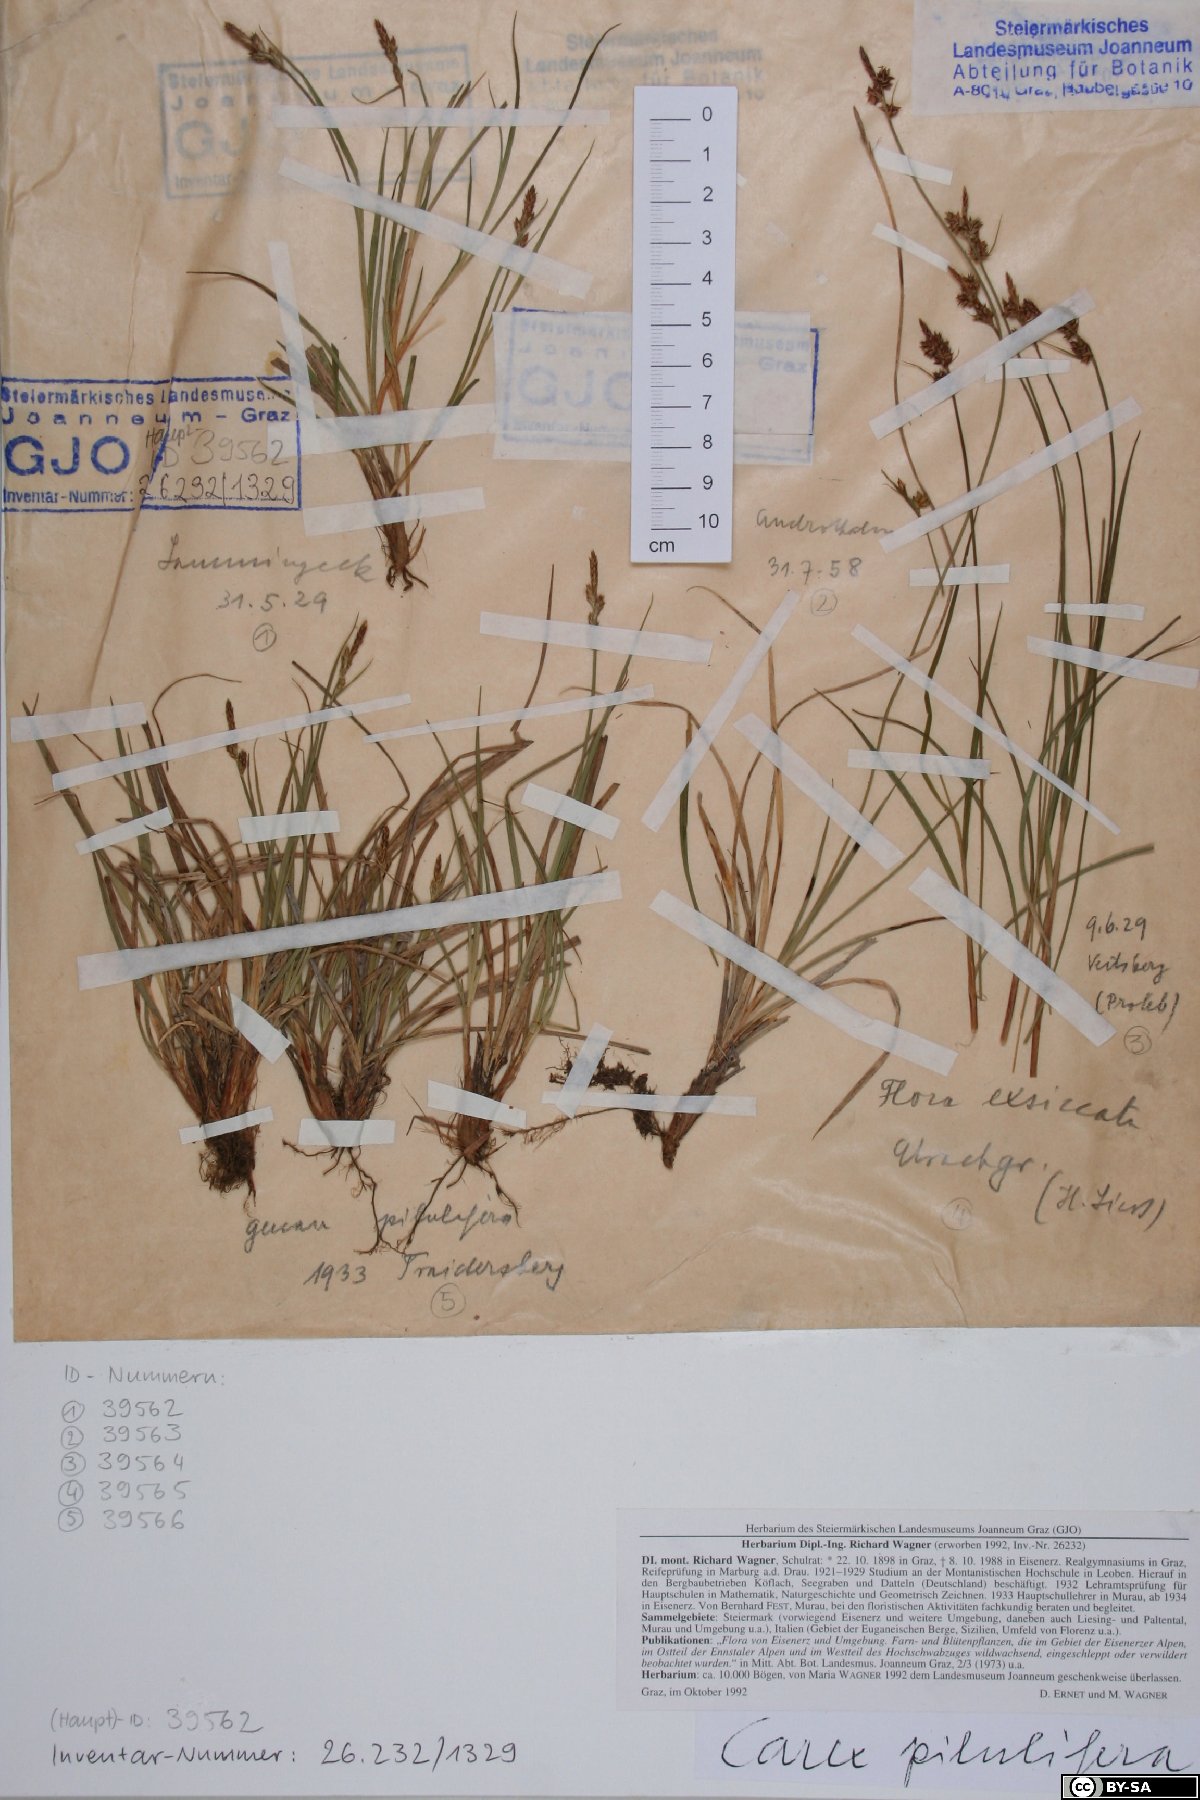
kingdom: Plantae
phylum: Tracheophyta
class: Liliopsida
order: Poales
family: Cyperaceae
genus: Carex
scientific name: Carex pilulifera
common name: Pill sedge
